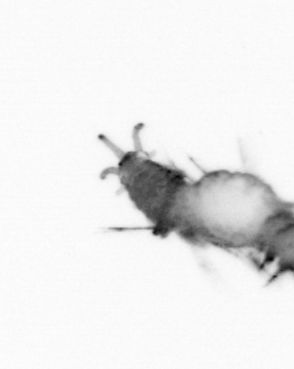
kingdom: Animalia
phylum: Annelida
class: Polychaeta
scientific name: Polychaeta
